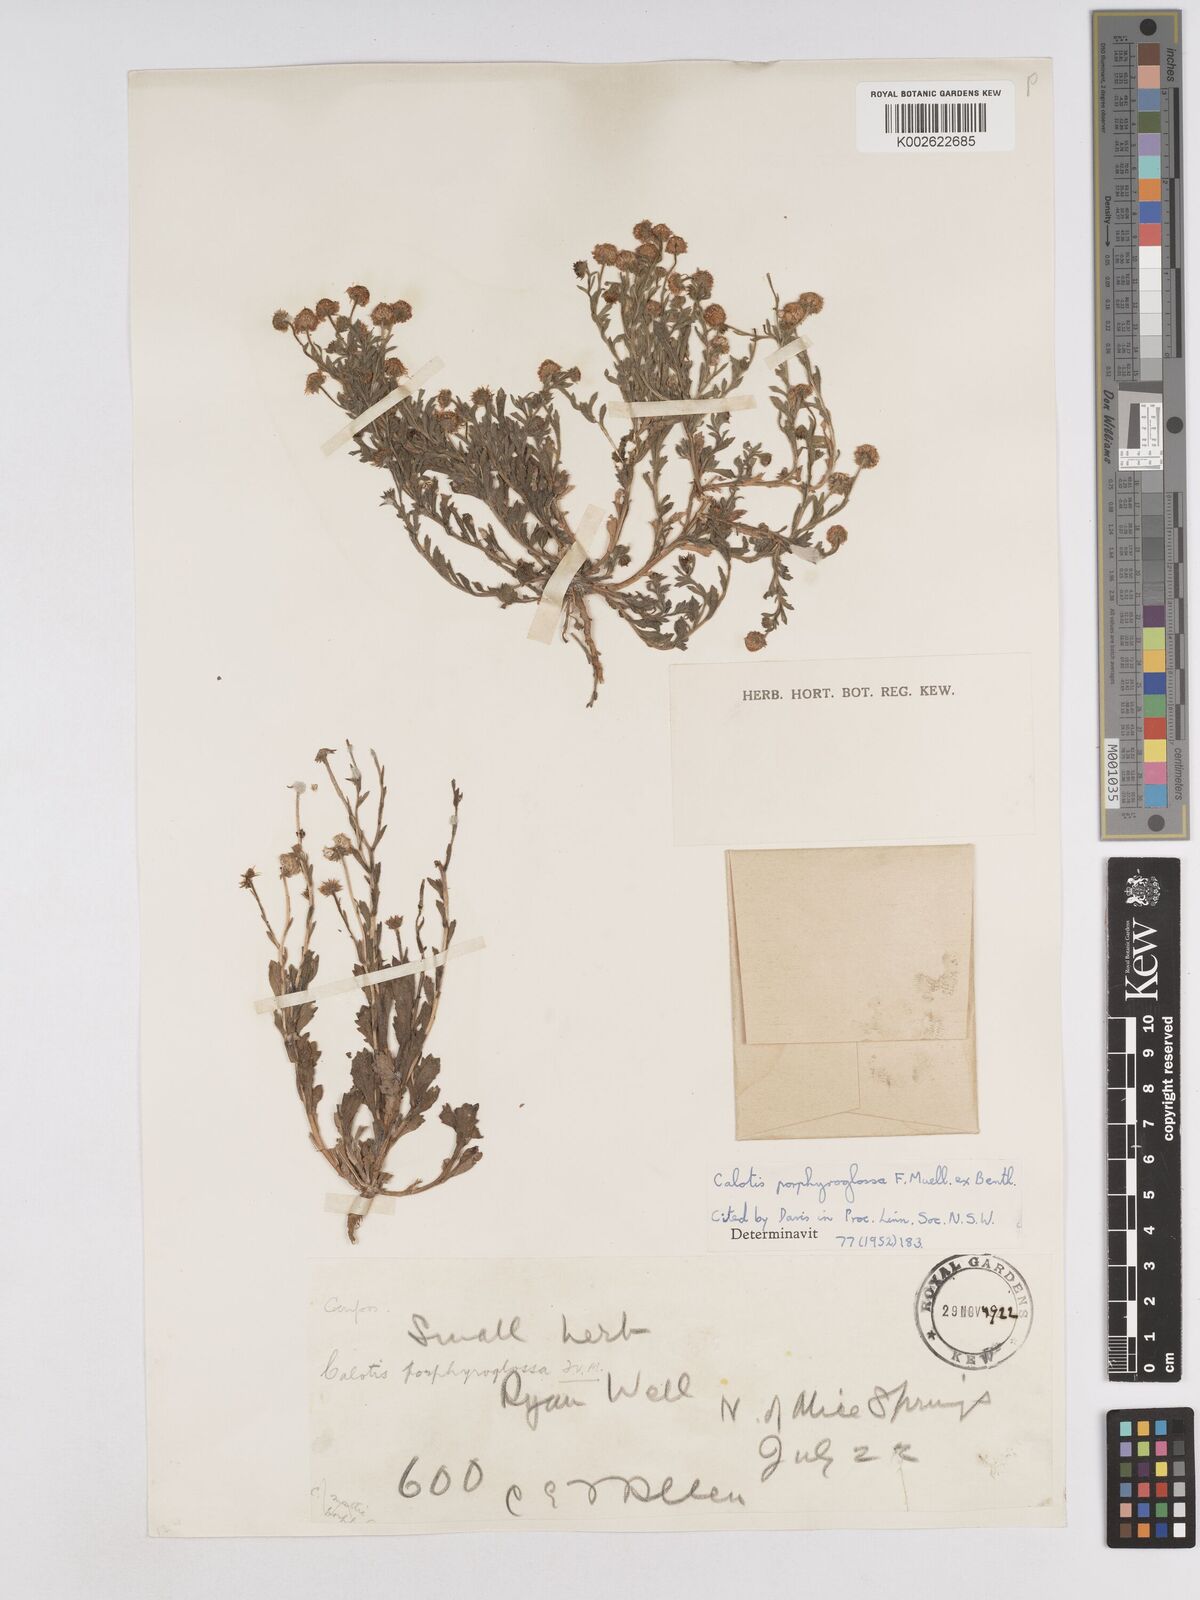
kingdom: Plantae
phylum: Tracheophyta
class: Magnoliopsida
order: Asterales
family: Asteraceae
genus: Calotis
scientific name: Calotis porphyroglossa
